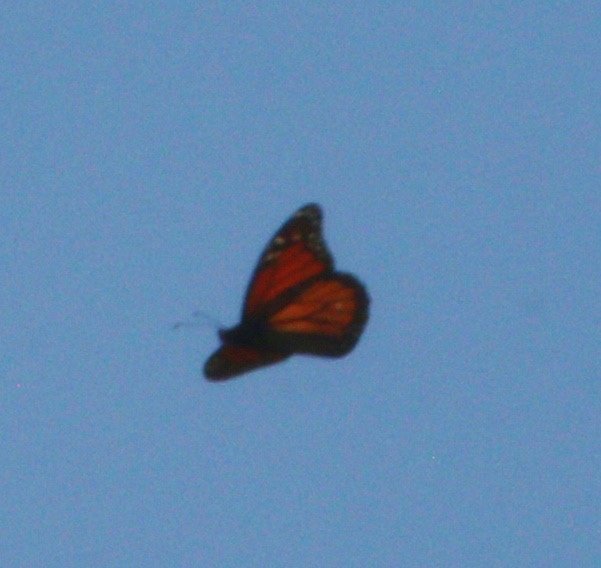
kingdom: Animalia
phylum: Arthropoda
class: Insecta
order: Lepidoptera
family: Nymphalidae
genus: Danaus
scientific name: Danaus plexippus
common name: Monarch
